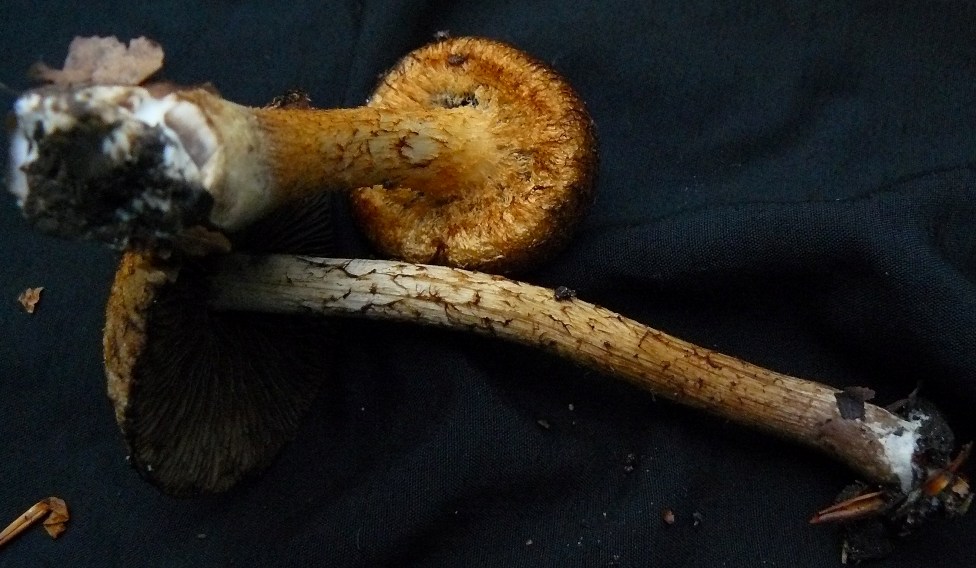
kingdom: Fungi
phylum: Basidiomycota
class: Agaricomycetes
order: Agaricales
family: Psathyrellaceae
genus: Lacrymaria
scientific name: Lacrymaria pyrotricha
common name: ildhåret mørkhat
